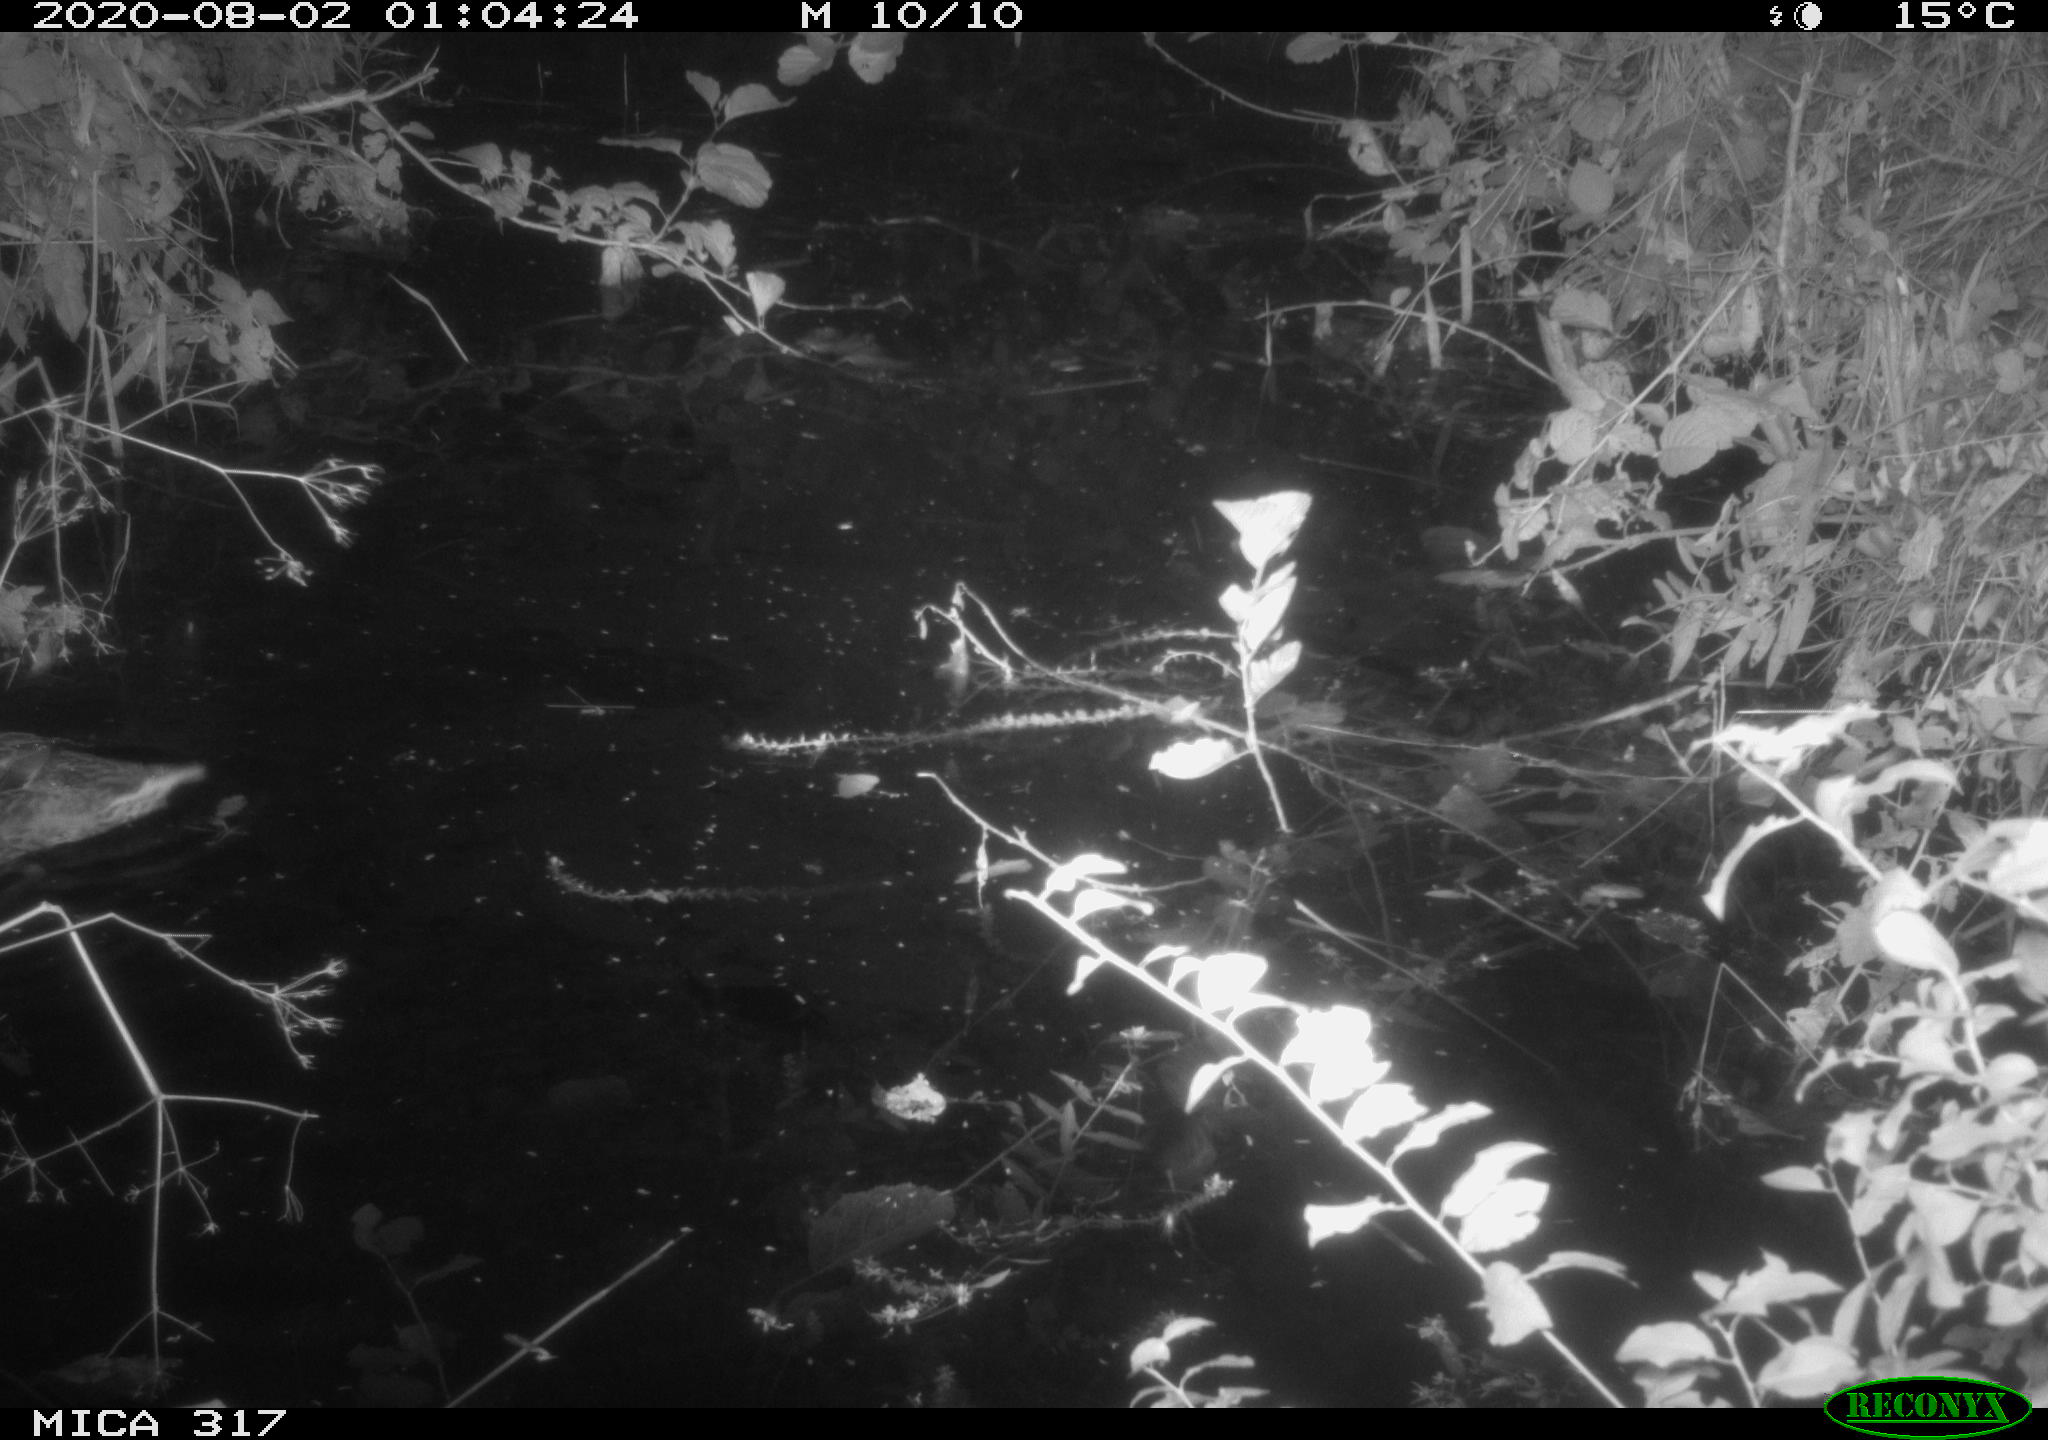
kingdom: Animalia
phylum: Chordata
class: Aves
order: Anseriformes
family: Anatidae
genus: Anas
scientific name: Anas platyrhynchos
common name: Mallard
